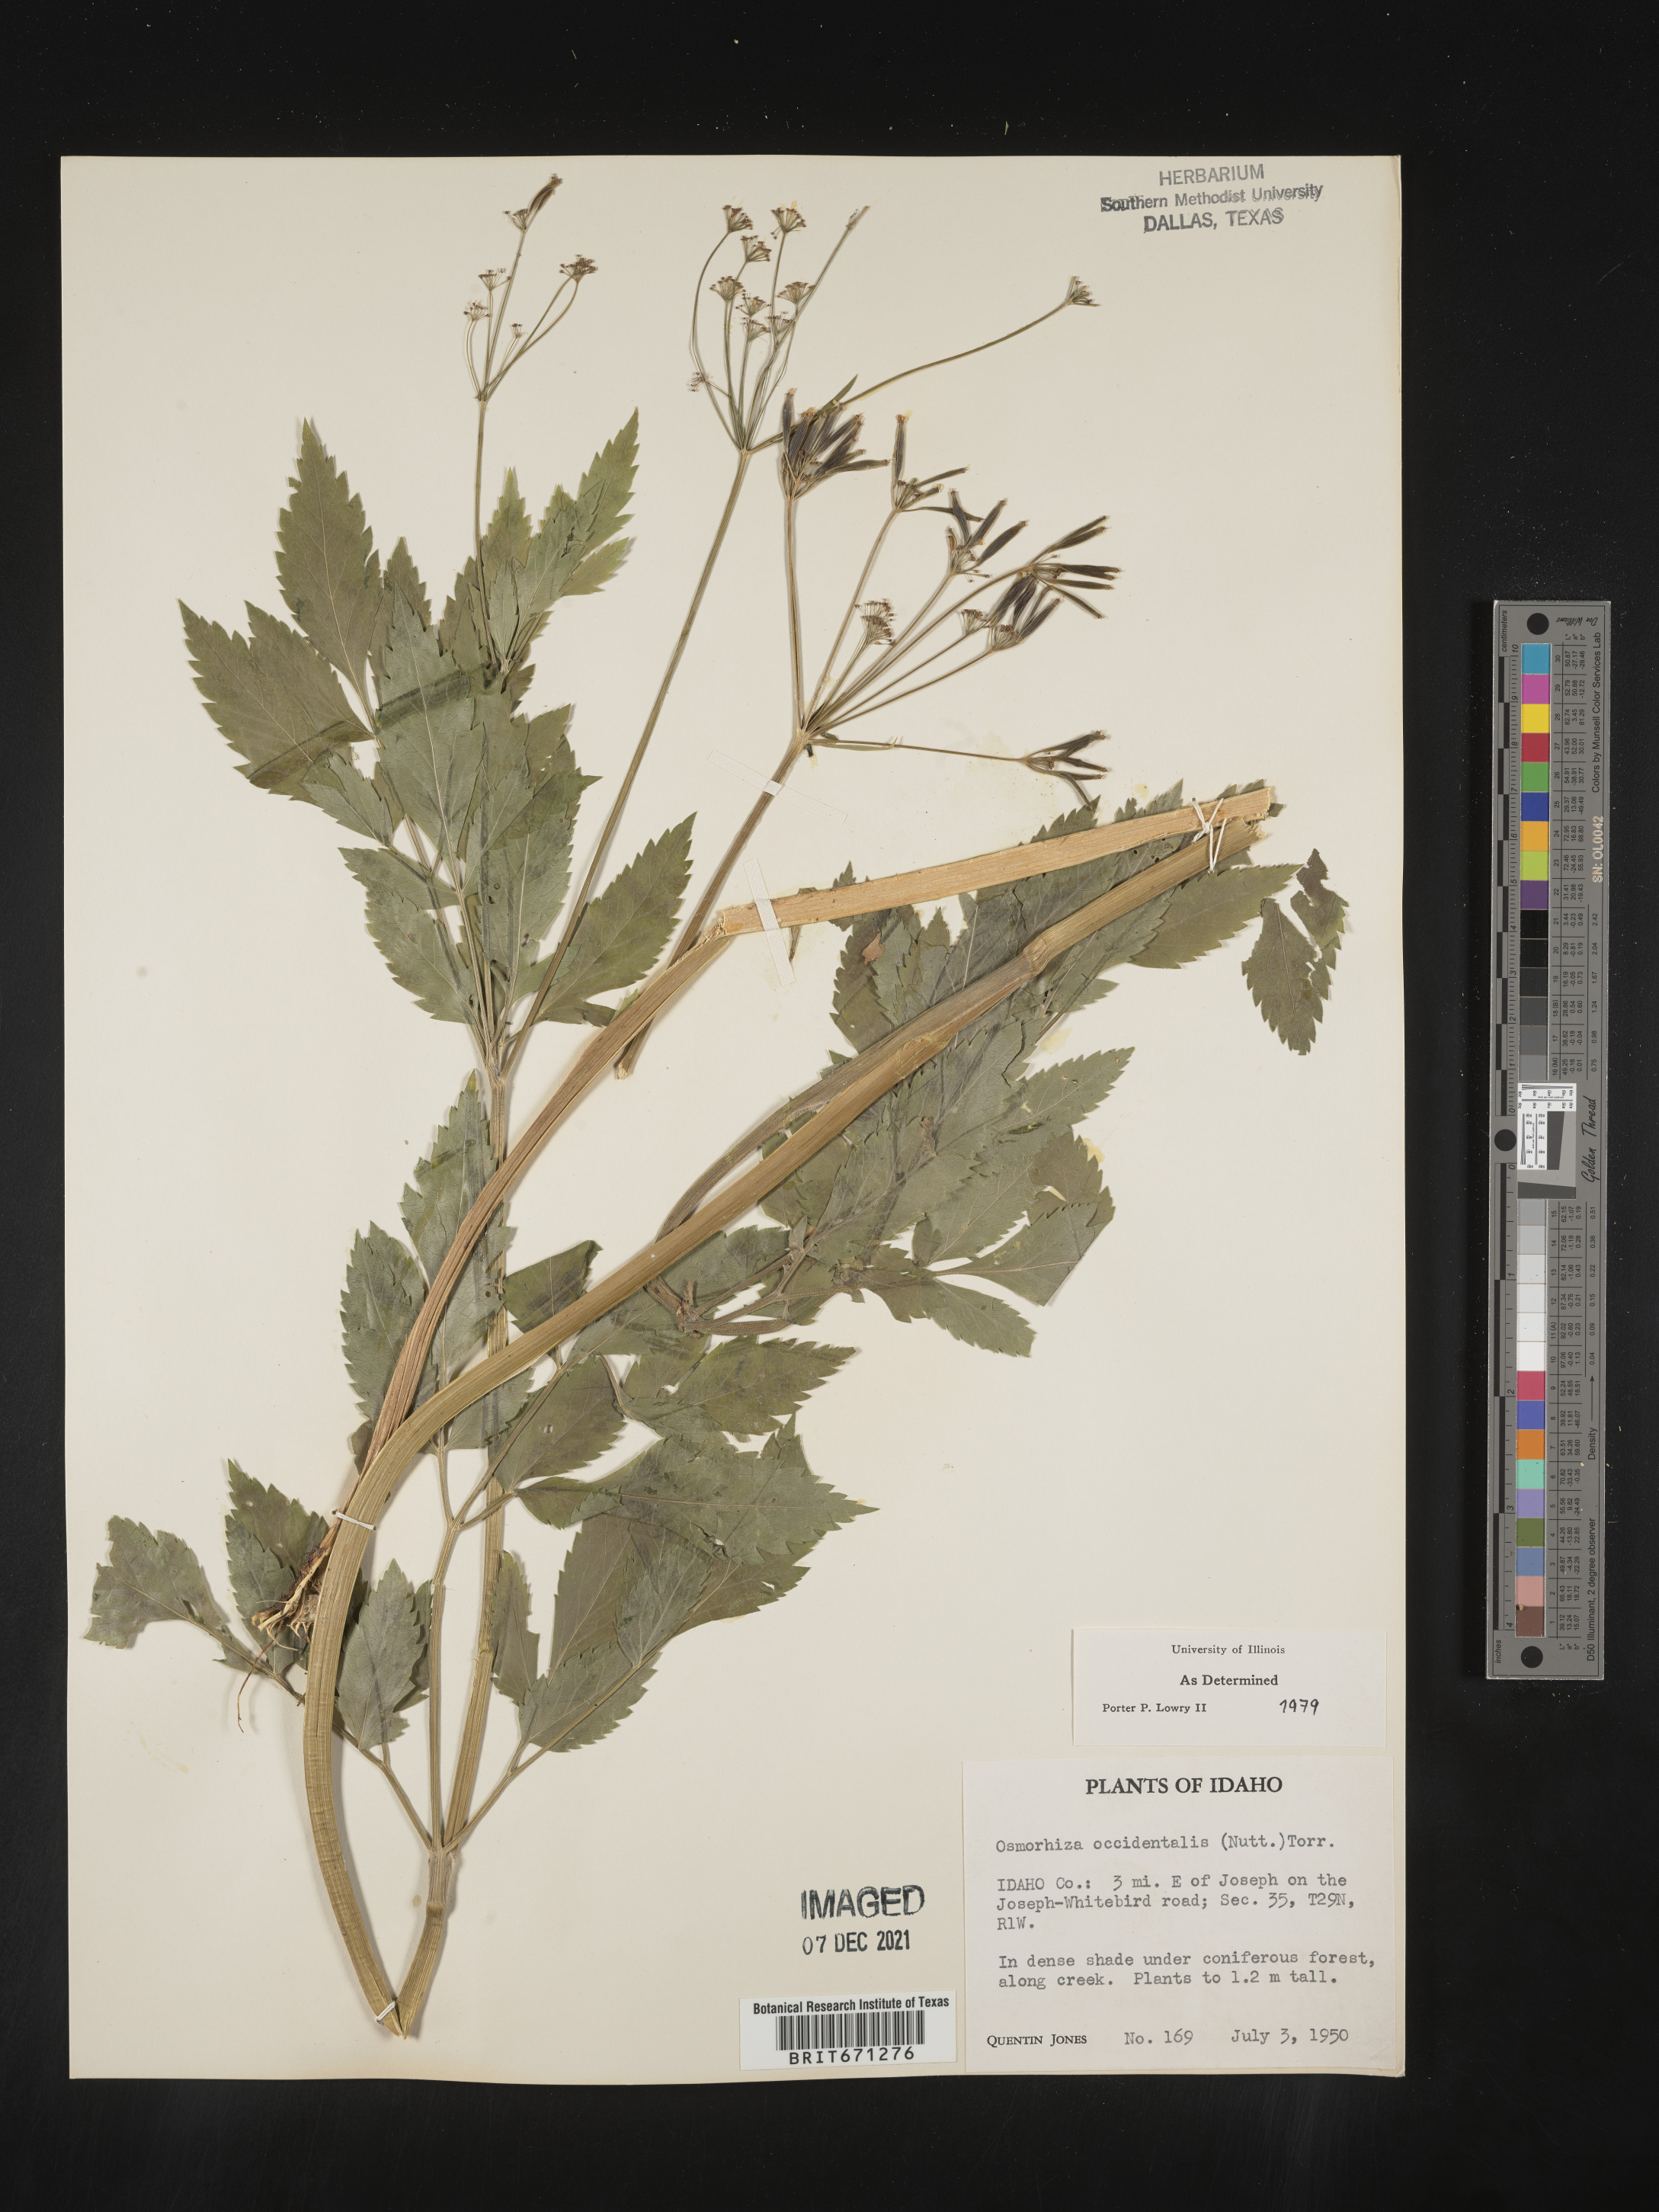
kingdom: Plantae
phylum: Tracheophyta
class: Magnoliopsida
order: Apiales
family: Apiaceae
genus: Osmorhiza
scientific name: Osmorhiza occidentalis
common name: Western sweet cicely
